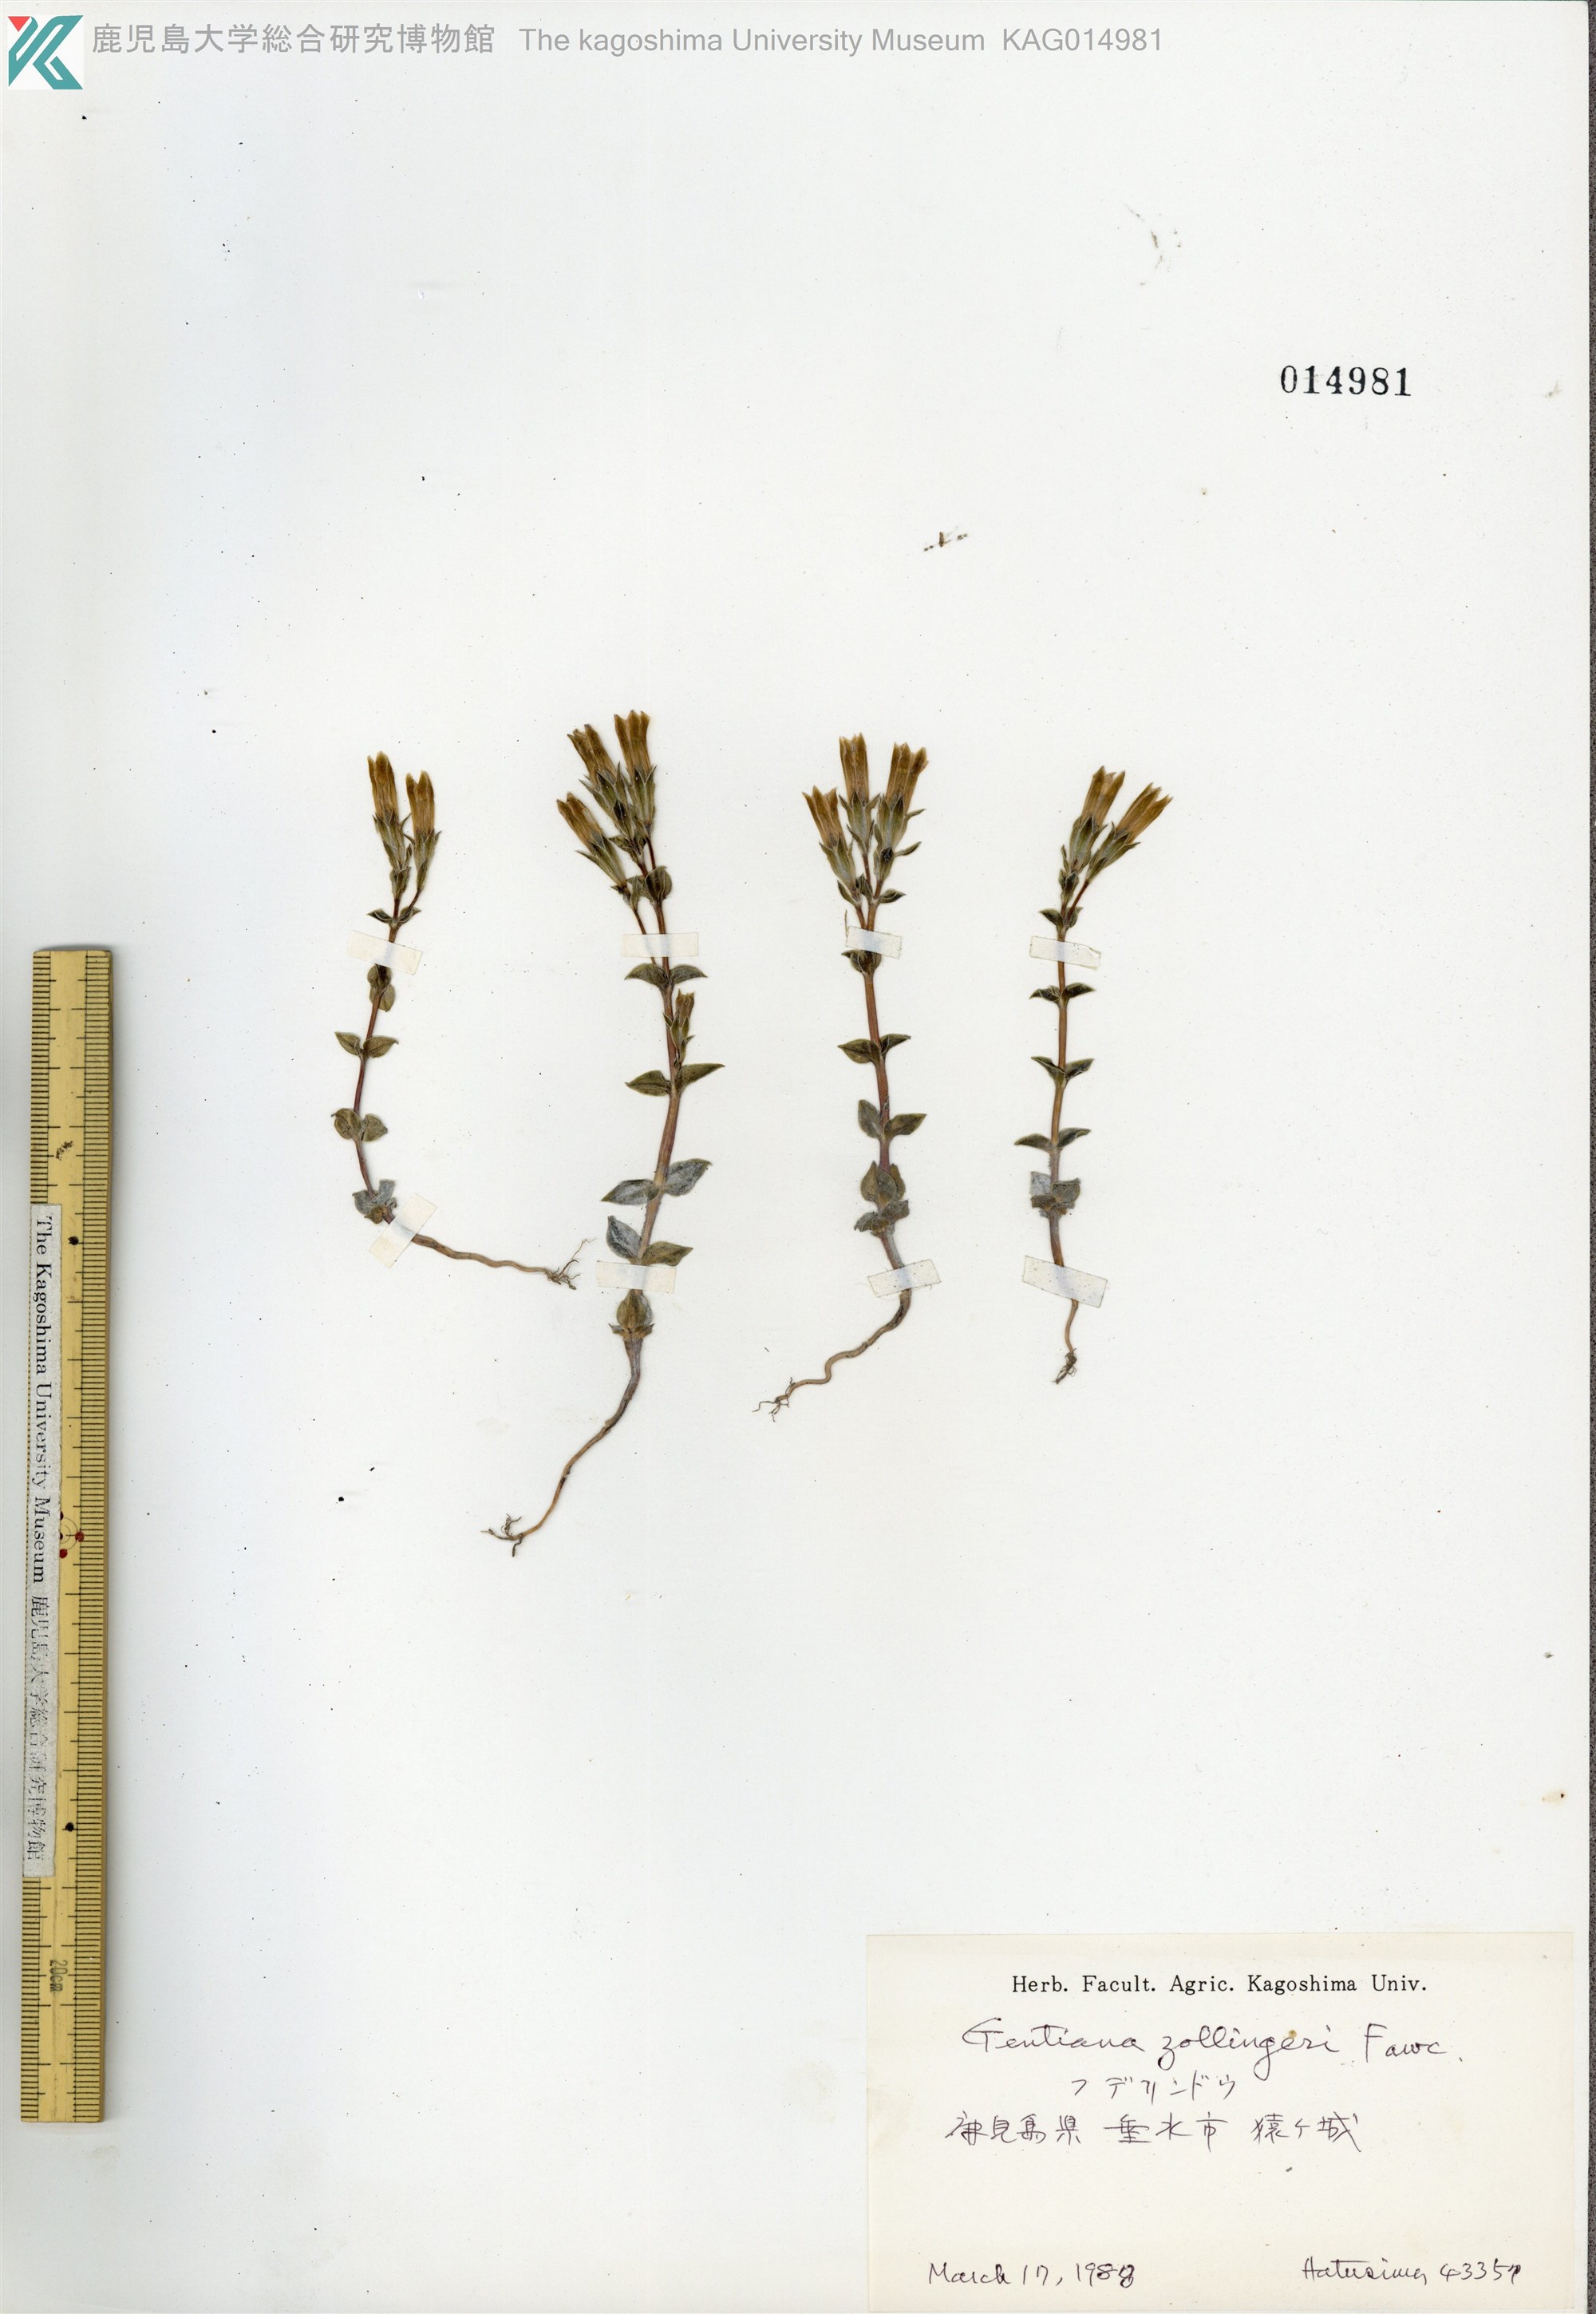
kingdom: Plantae
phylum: Tracheophyta
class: Magnoliopsida
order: Gentianales
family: Gentianaceae
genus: Gentiana
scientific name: Gentiana zollingeri
